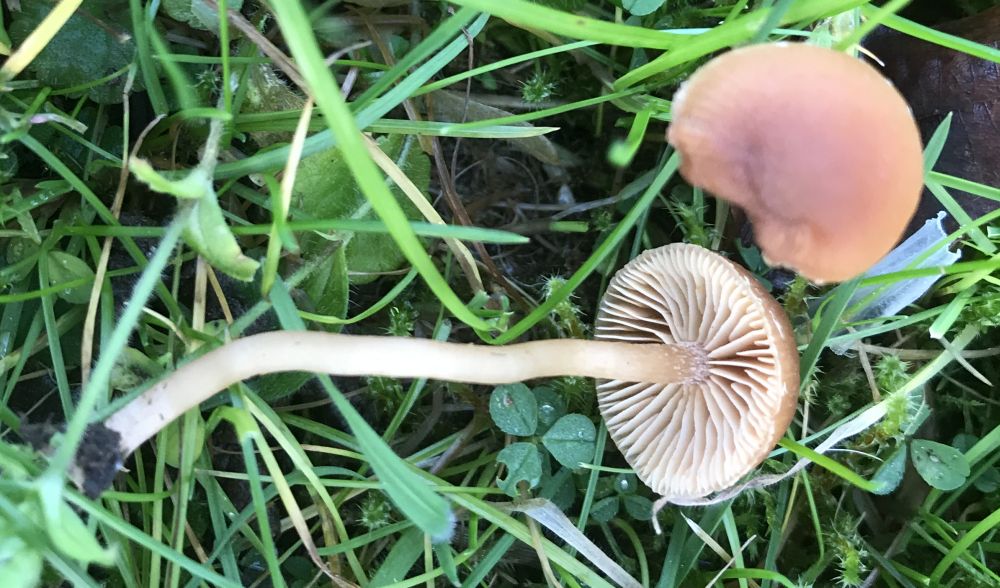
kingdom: Fungi
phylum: Basidiomycota
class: Agaricomycetes
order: Agaricales
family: Tubariaceae
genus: Tubaria
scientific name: Tubaria furfuracea
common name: kliddet fnughat
